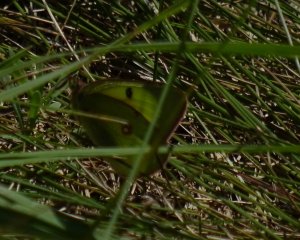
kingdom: Animalia
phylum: Arthropoda
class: Insecta
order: Lepidoptera
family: Pieridae
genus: Colias
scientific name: Colias philodice
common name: Clouded Sulphur
